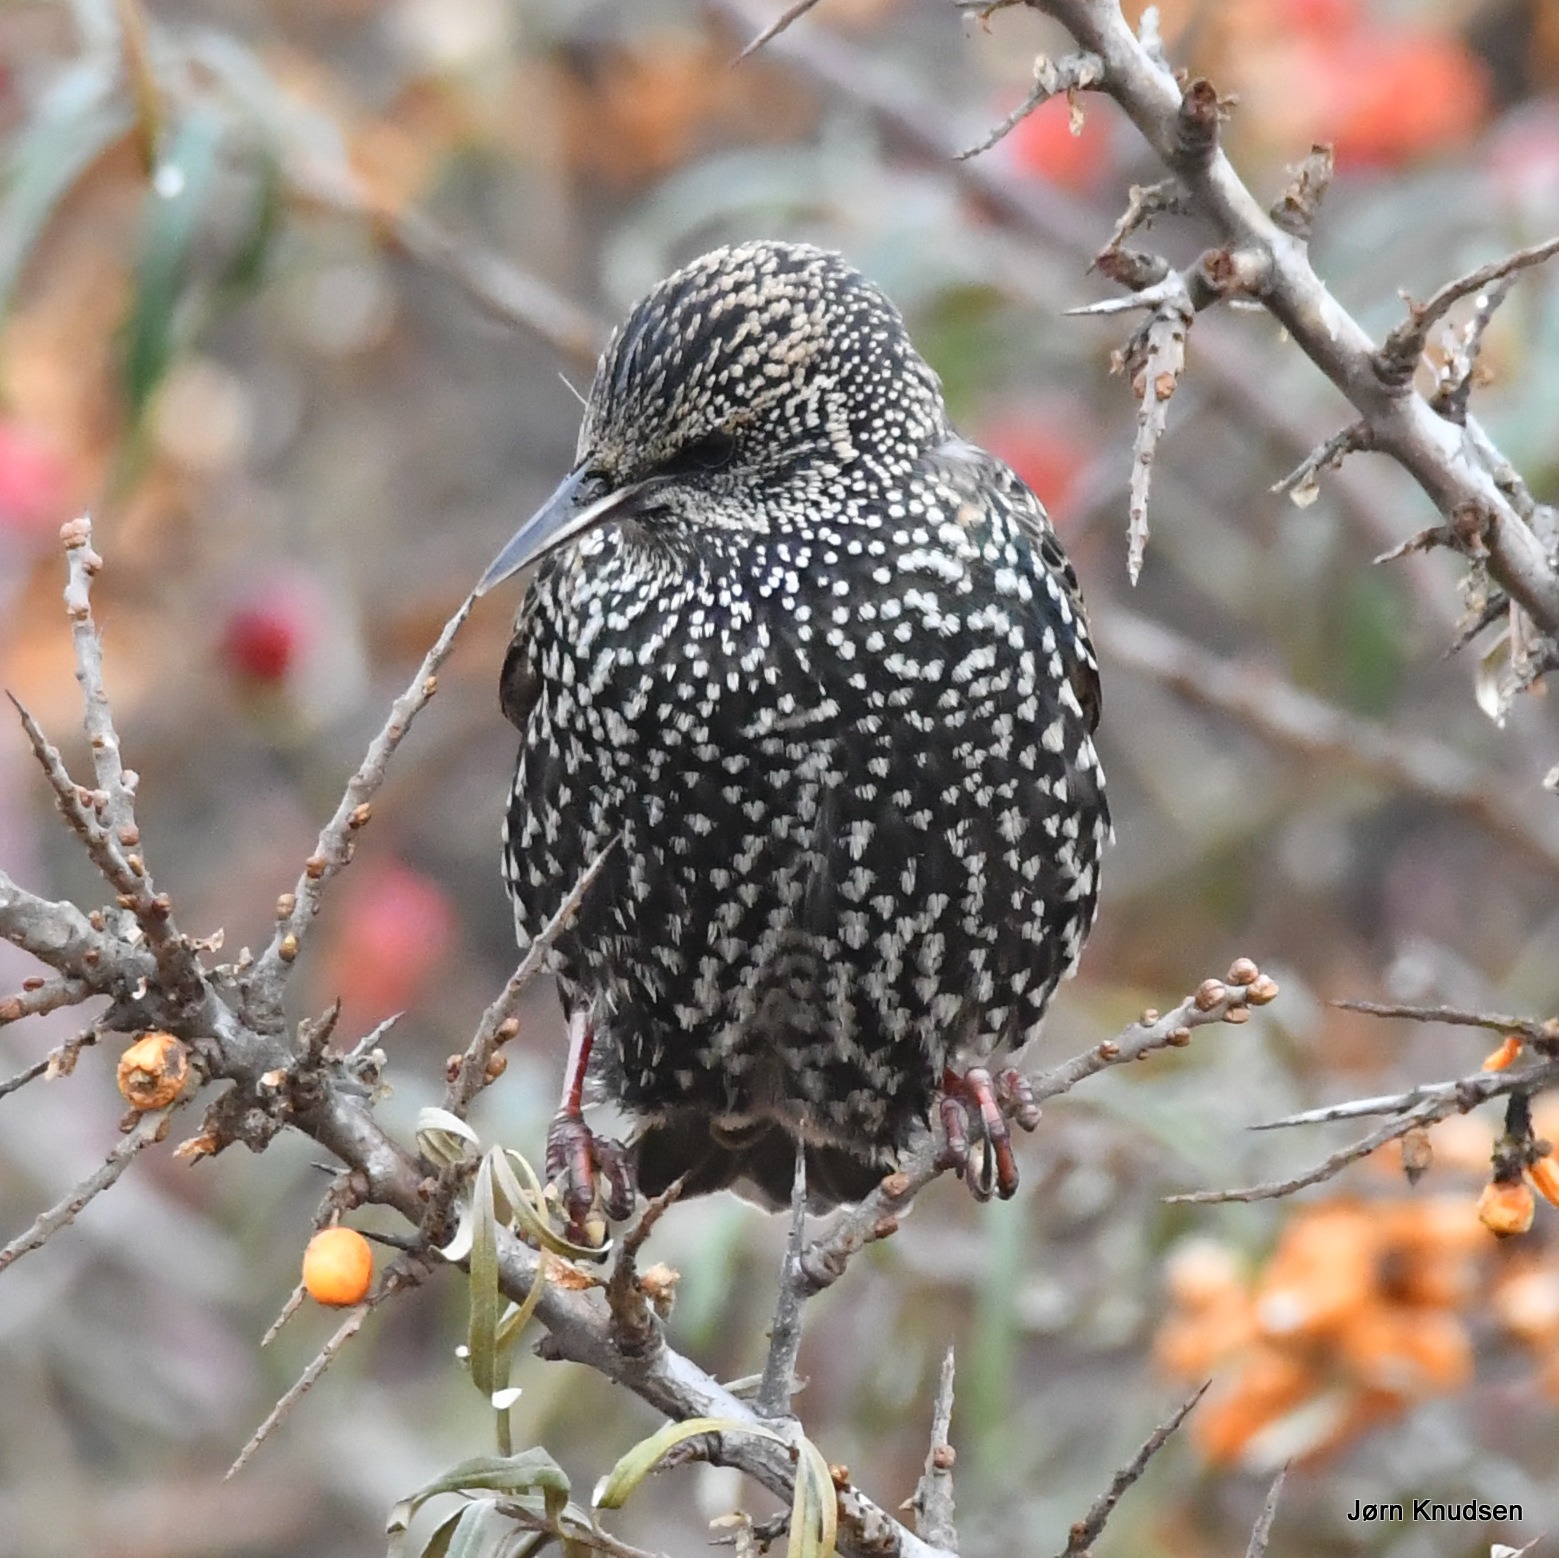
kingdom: Animalia
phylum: Chordata
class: Aves
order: Passeriformes
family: Sturnidae
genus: Sturnus
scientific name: Sturnus vulgaris
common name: Stær
